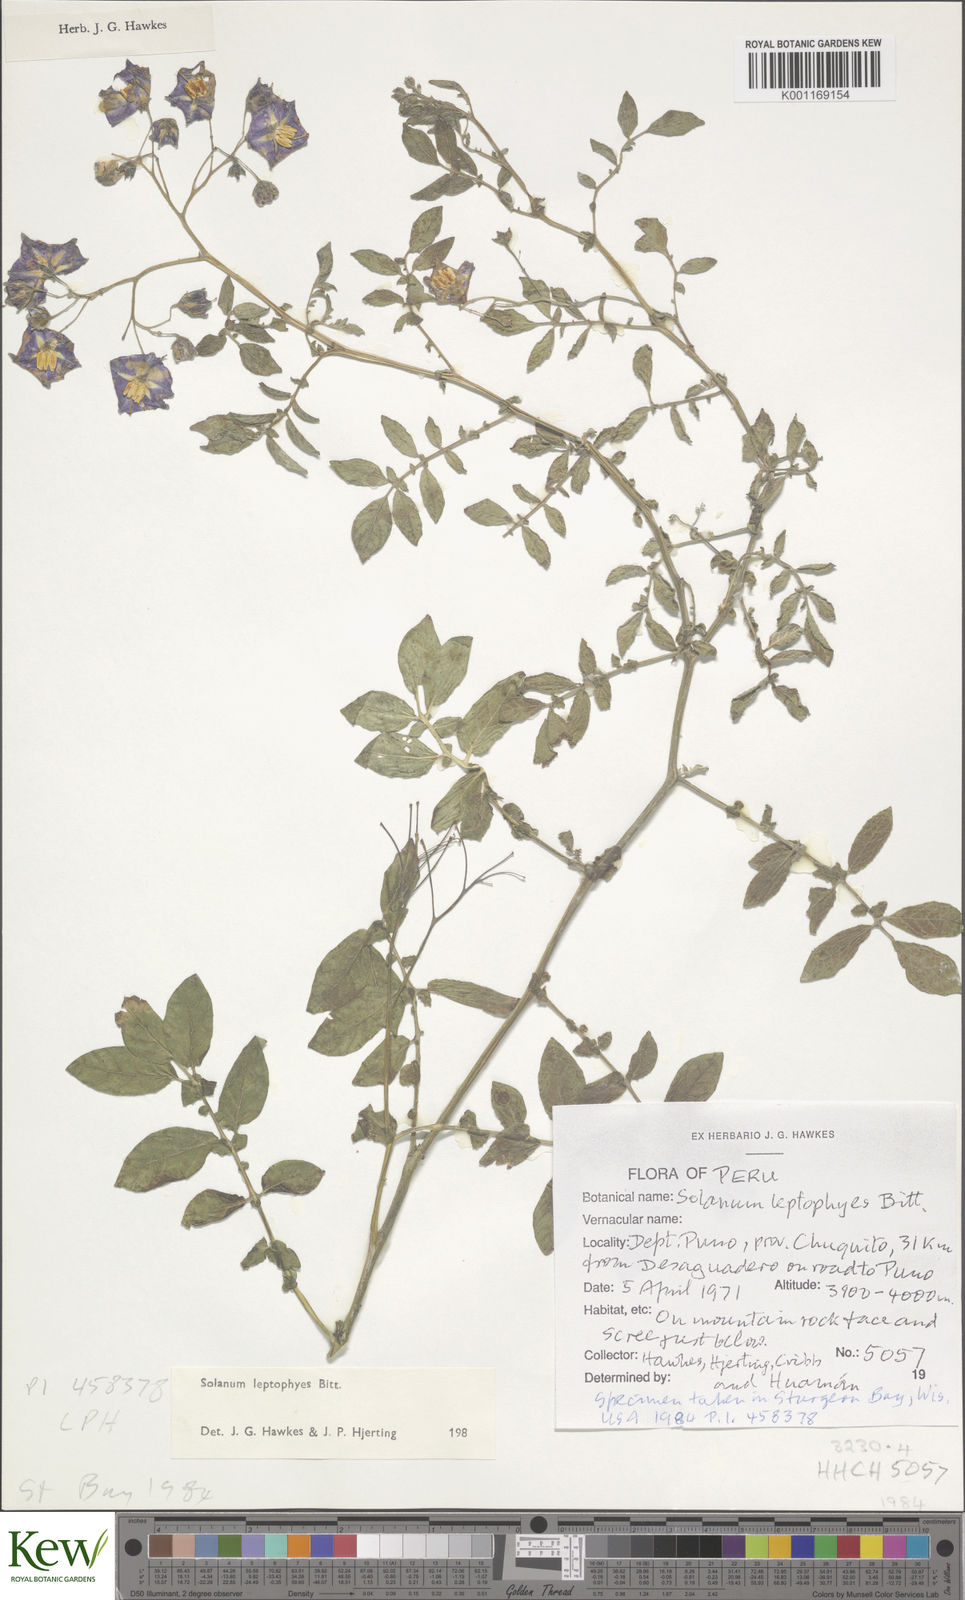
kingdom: Plantae
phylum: Tracheophyta
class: Magnoliopsida
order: Solanales
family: Solanaceae
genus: Solanum
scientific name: Solanum brevicaule
